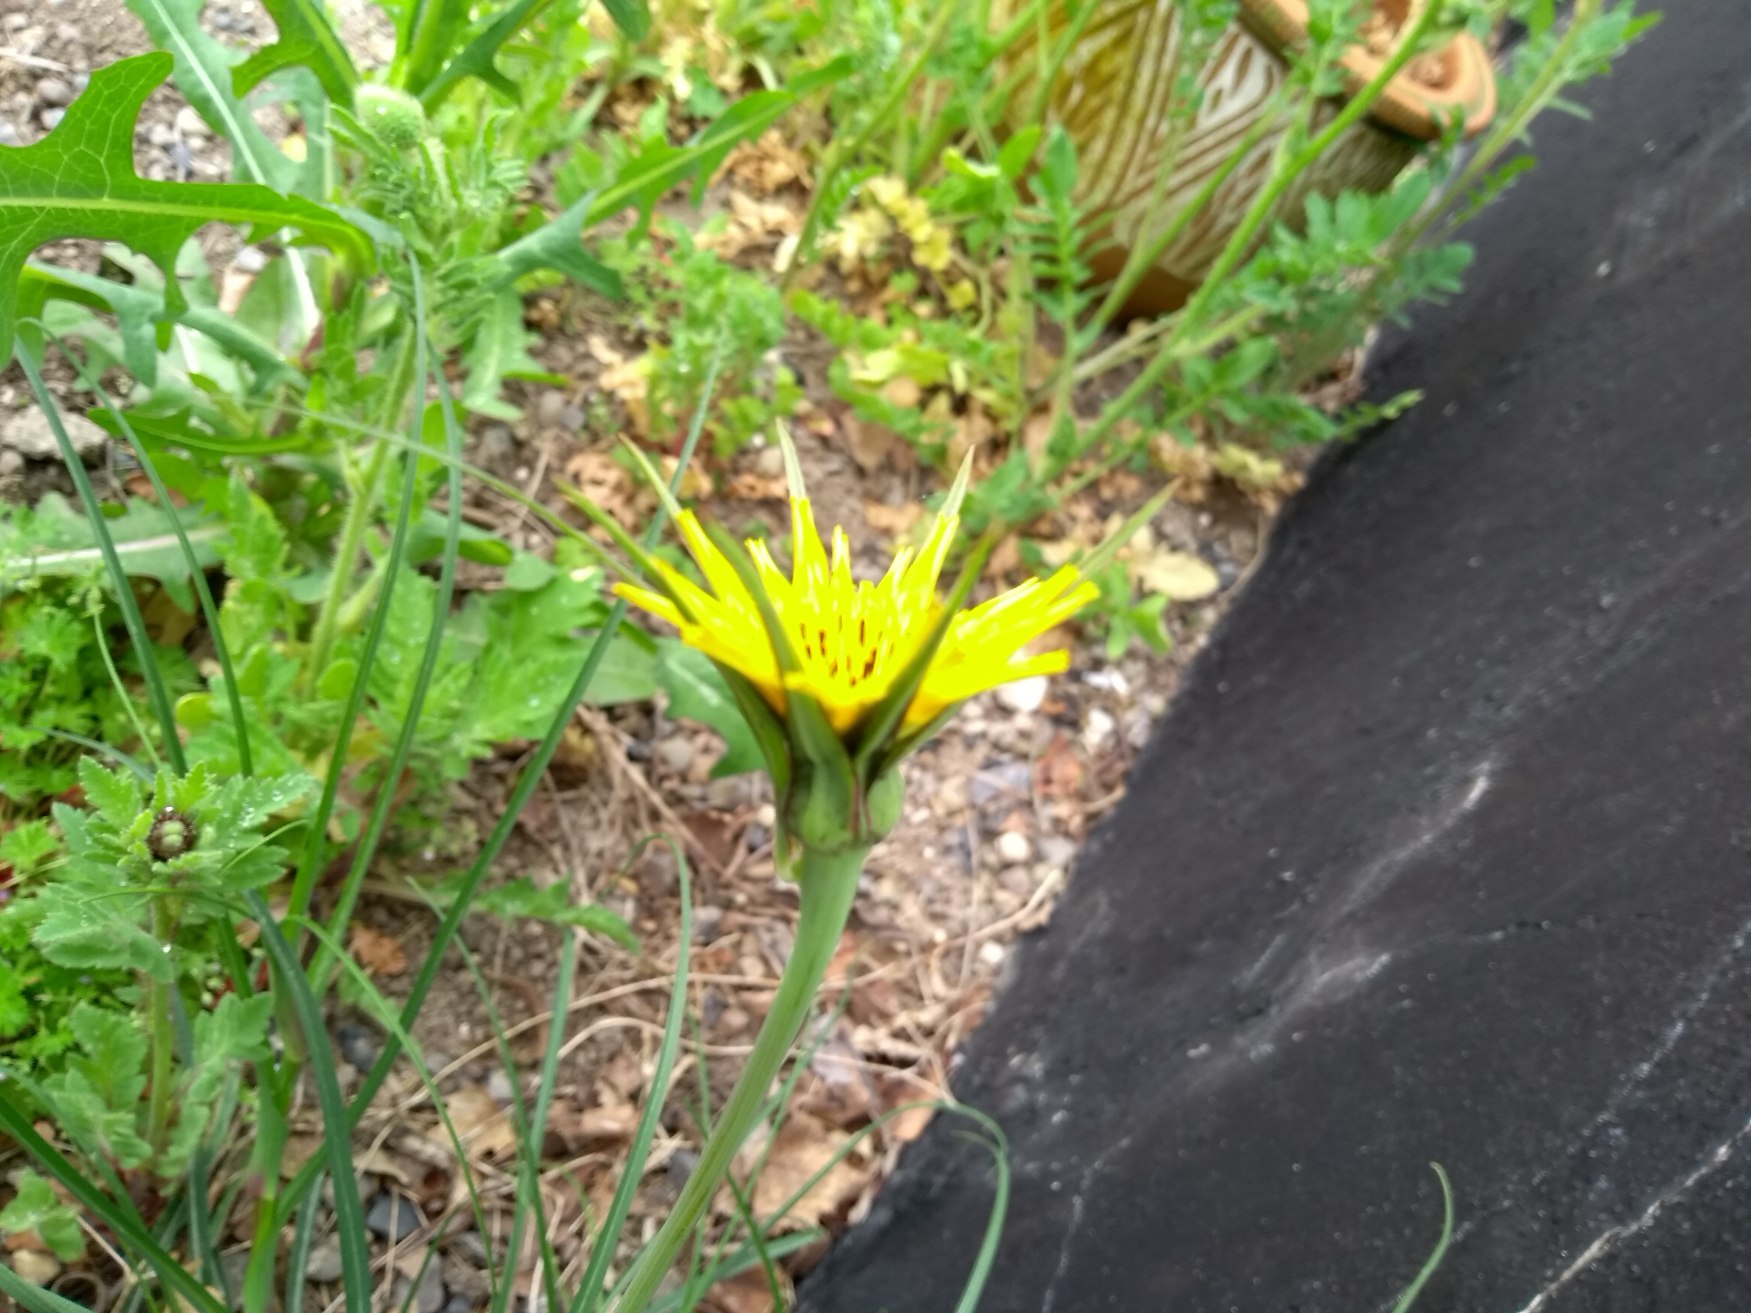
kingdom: Plantae
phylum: Tracheophyta
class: Magnoliopsida
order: Asterales
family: Asteraceae
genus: Tragopogon
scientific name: Tragopogon minor
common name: Småkronet gedeskæg
